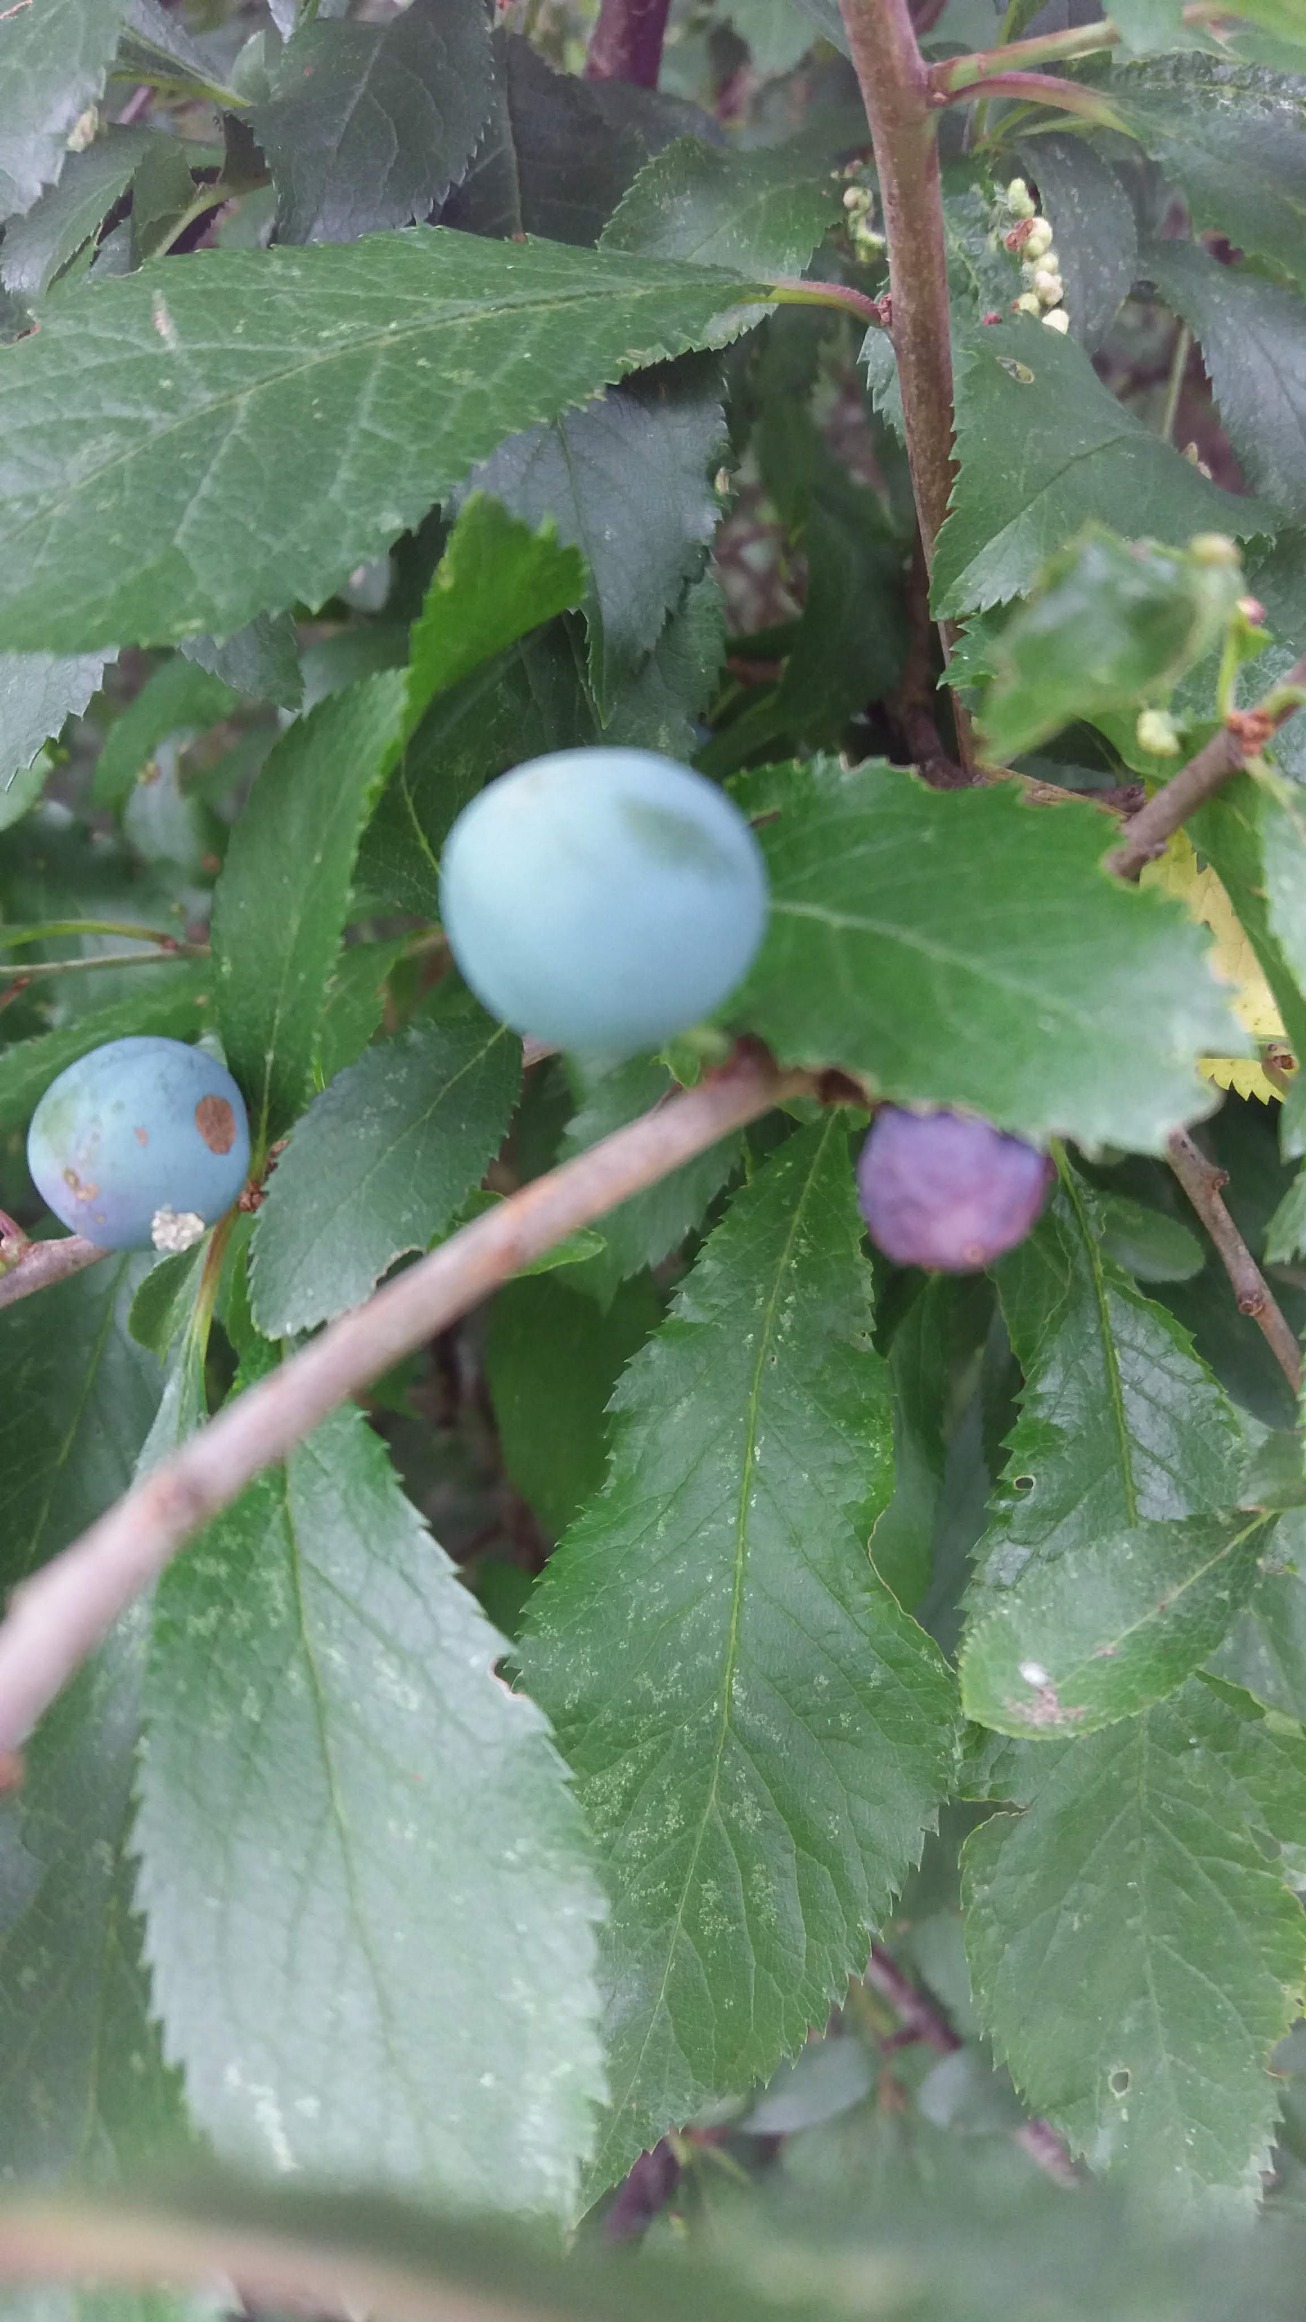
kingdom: Plantae
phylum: Tracheophyta
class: Magnoliopsida
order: Rosales
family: Rosaceae
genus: Prunus
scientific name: Prunus spinosa
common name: Slåen
